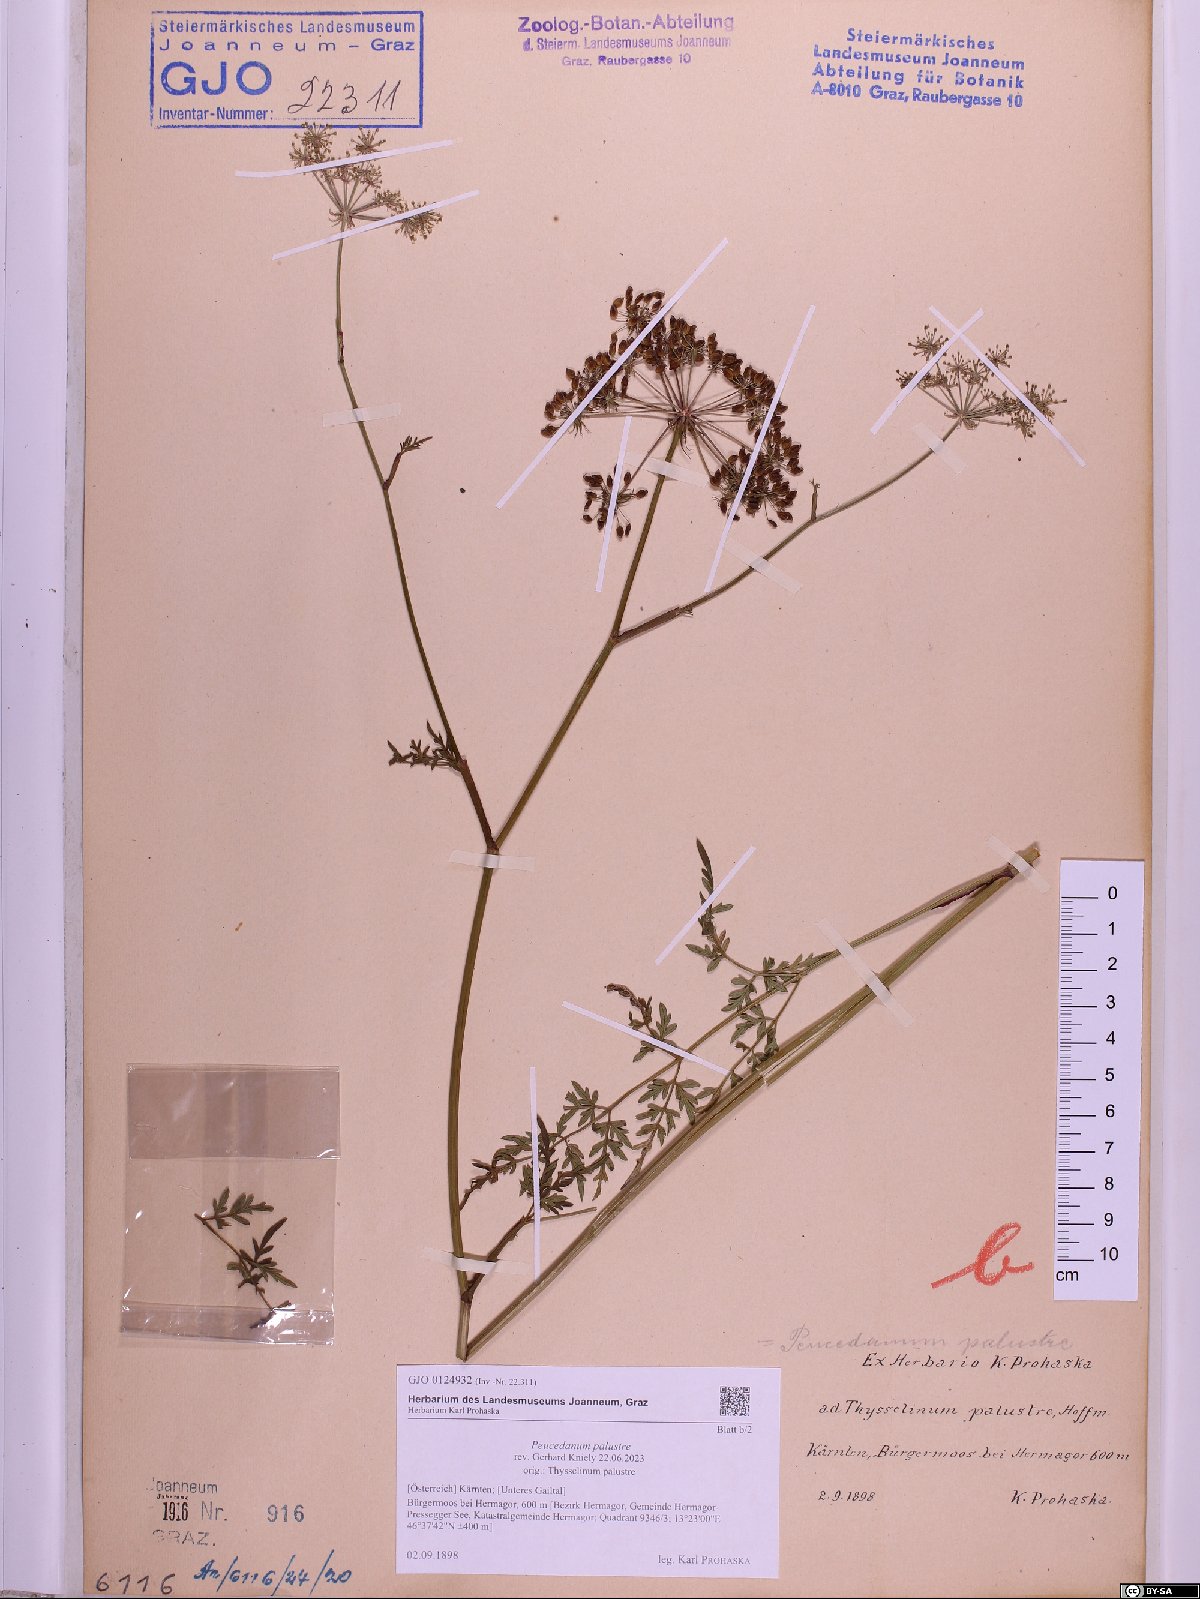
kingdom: Plantae
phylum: Tracheophyta
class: Magnoliopsida
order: Apiales
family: Apiaceae
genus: Thysselinum
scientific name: Thysselinum palustre
